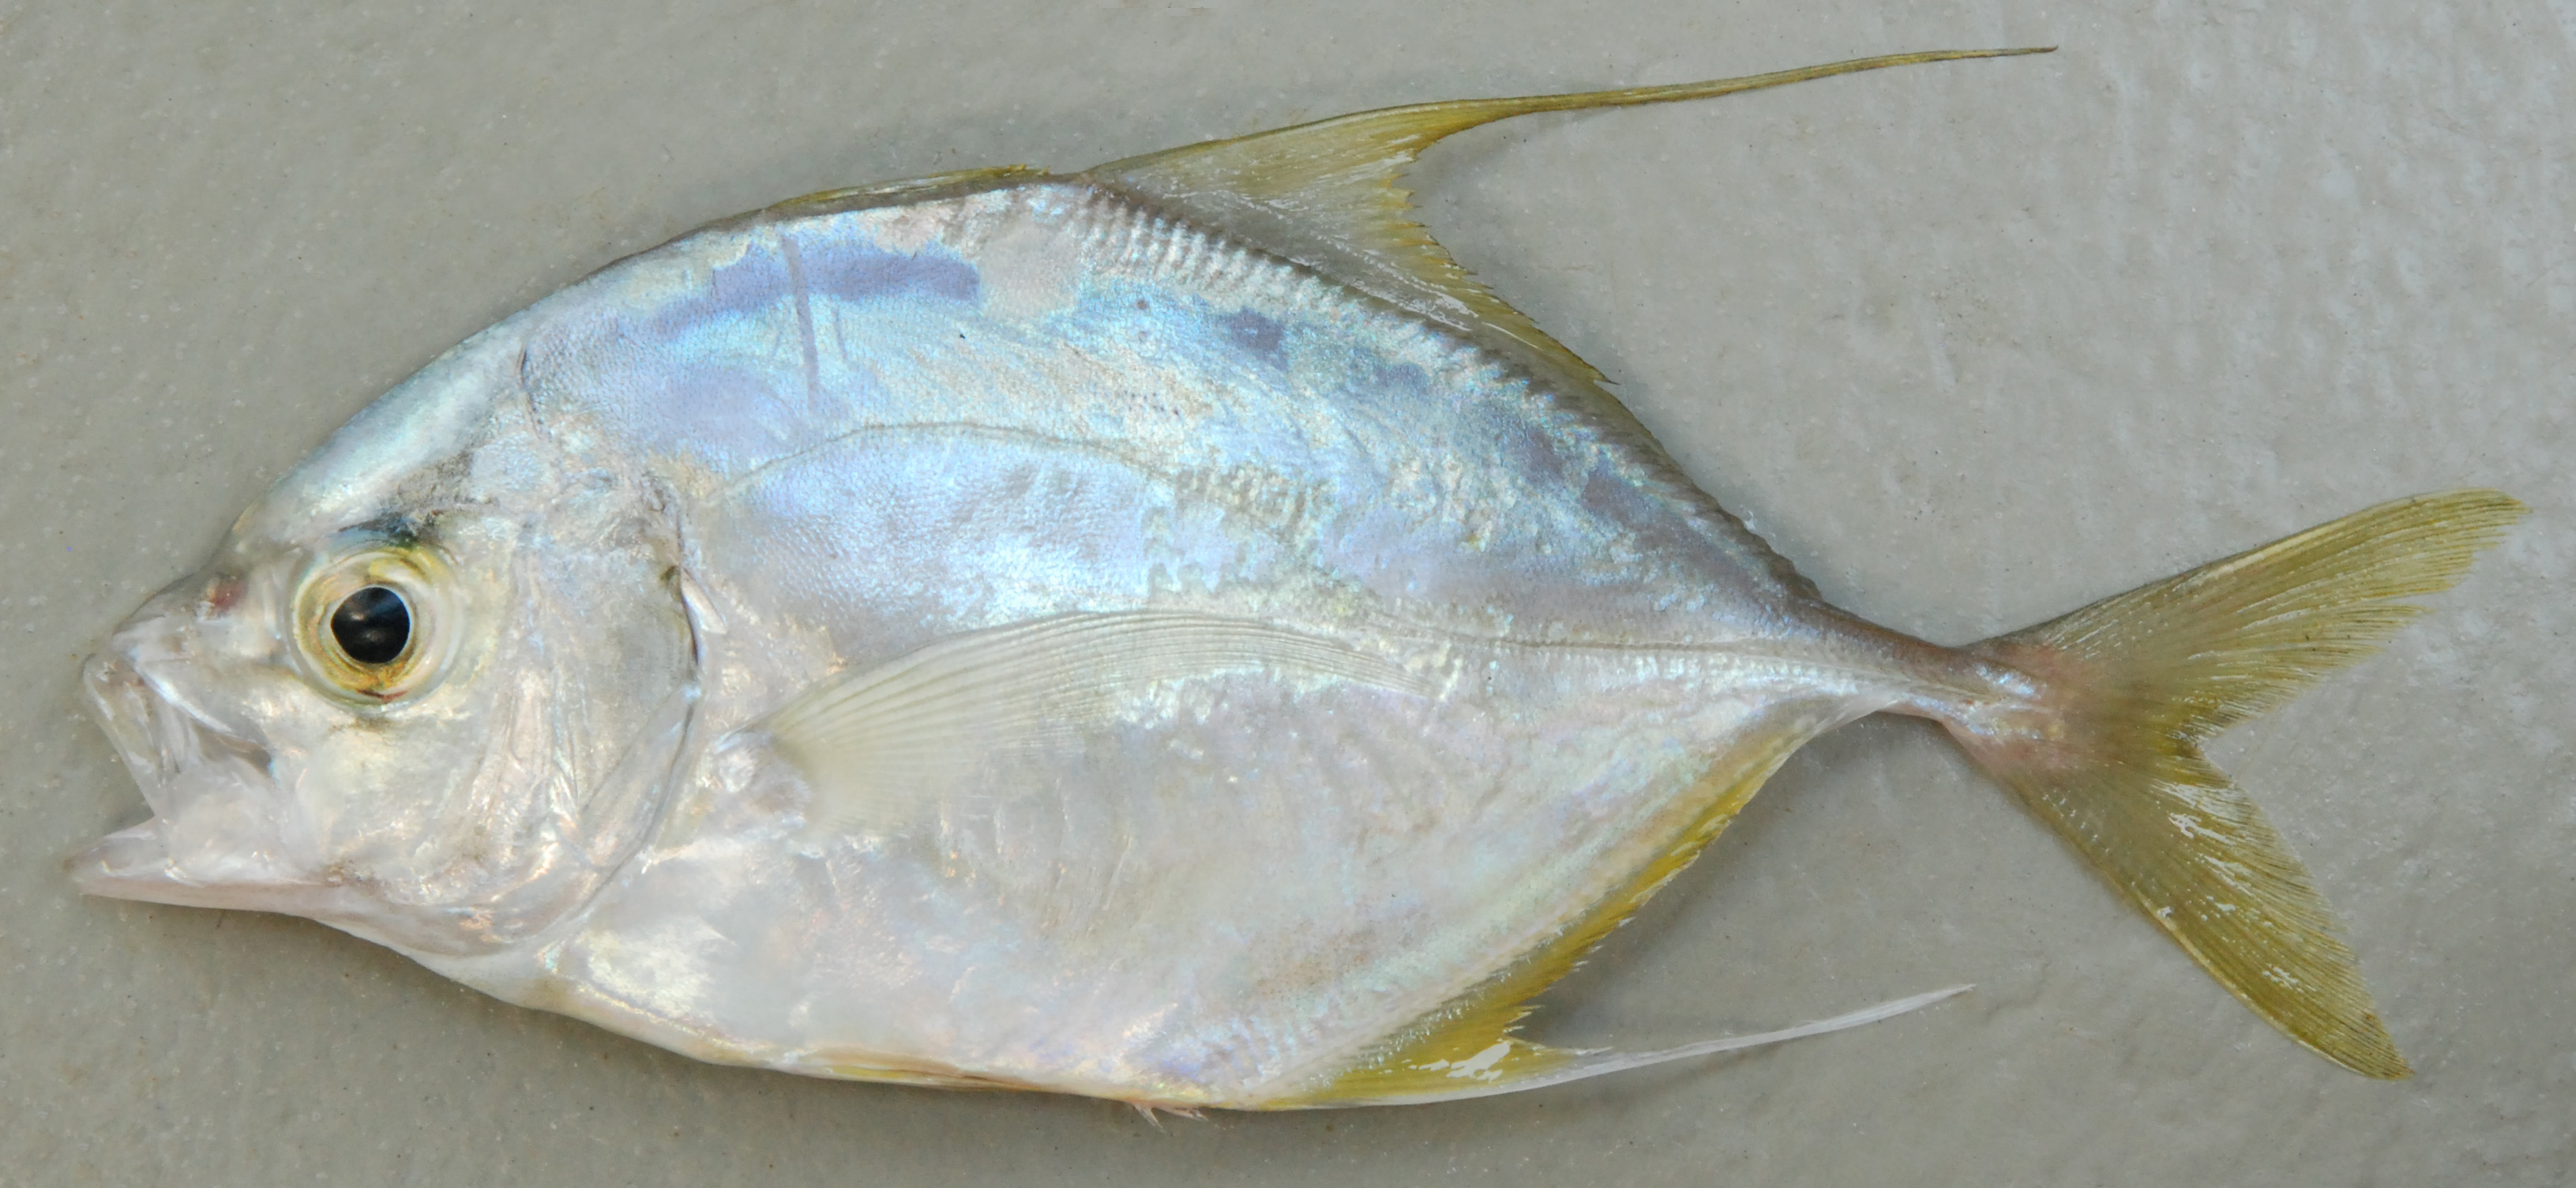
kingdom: Animalia
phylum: Chordata
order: Perciformes
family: Carangidae
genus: Carangoides
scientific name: Carangoides oblongus
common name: Coachwhip trevally
